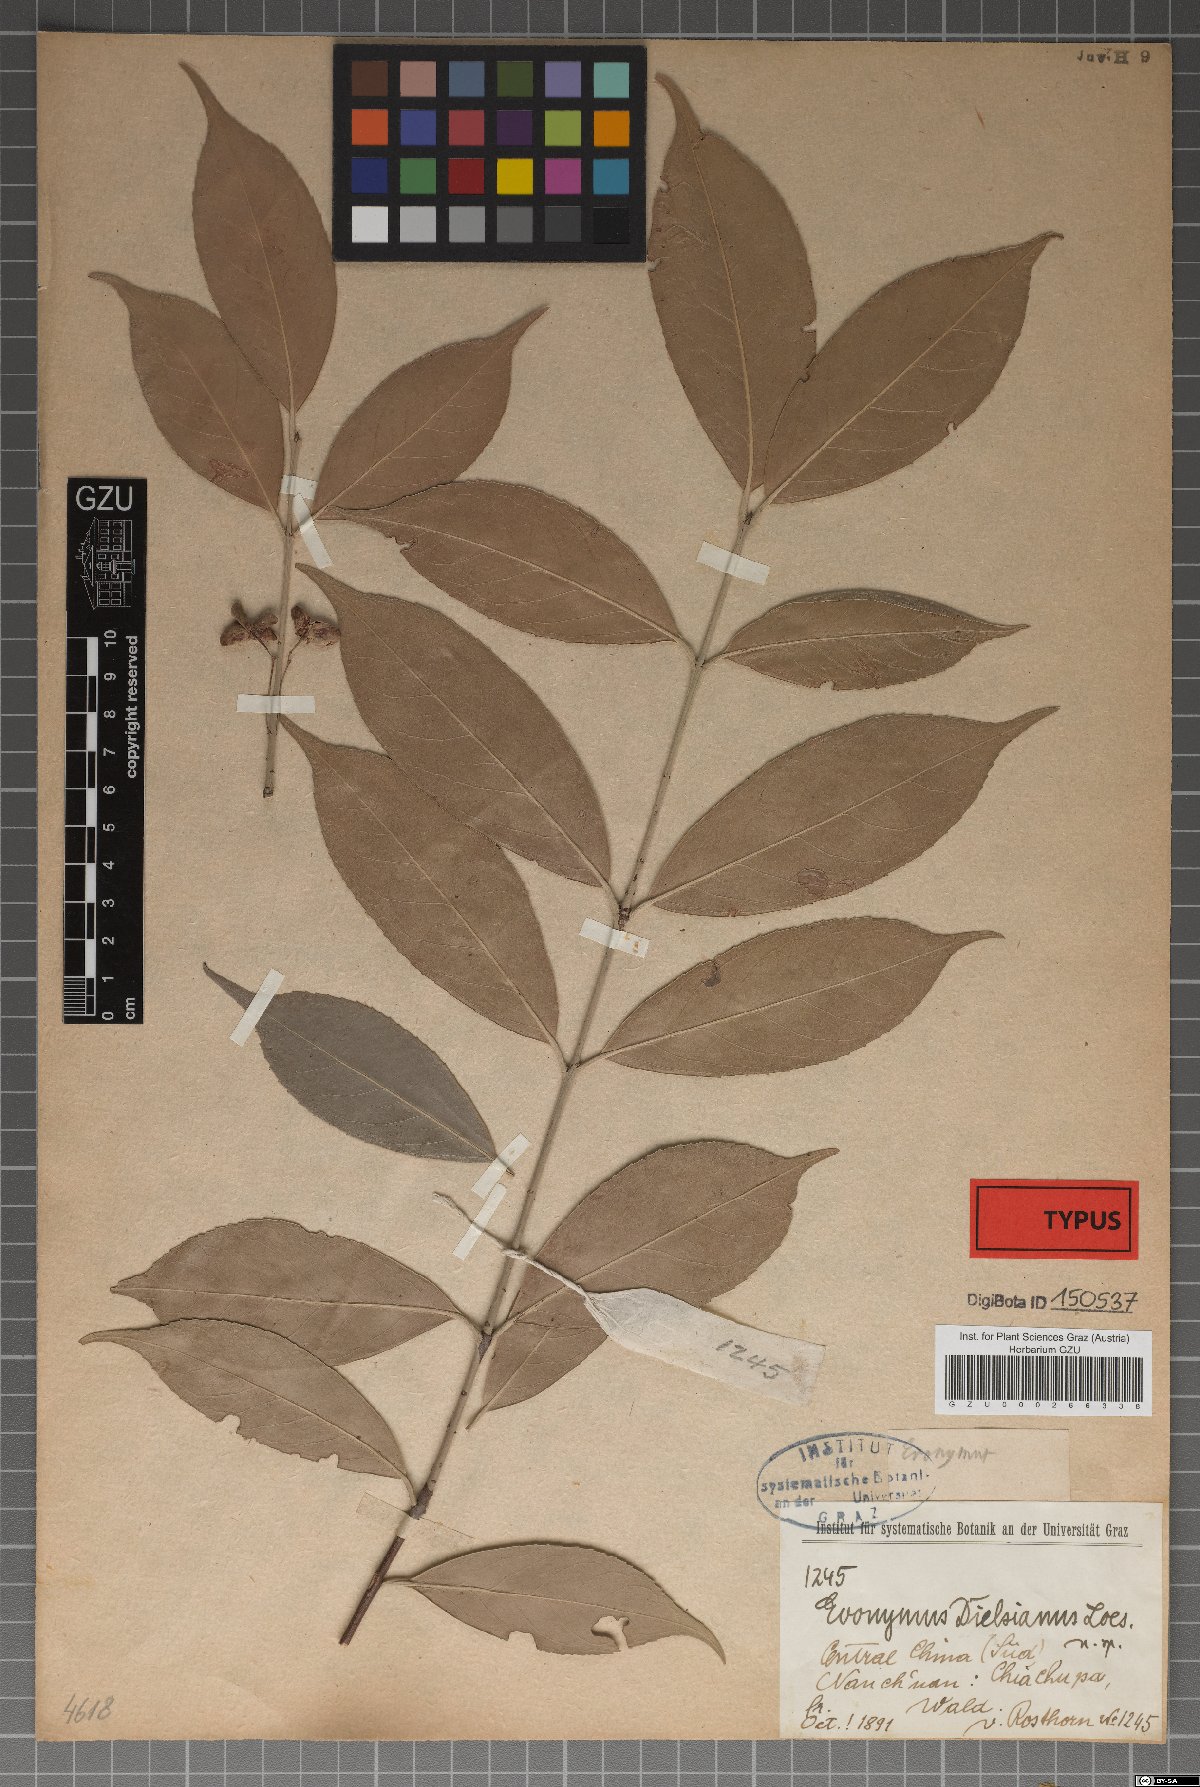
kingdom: Plantae
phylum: Tracheophyta
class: Magnoliopsida
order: Celastrales
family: Celastraceae
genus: Euonymus
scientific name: Euonymus dielsianus
